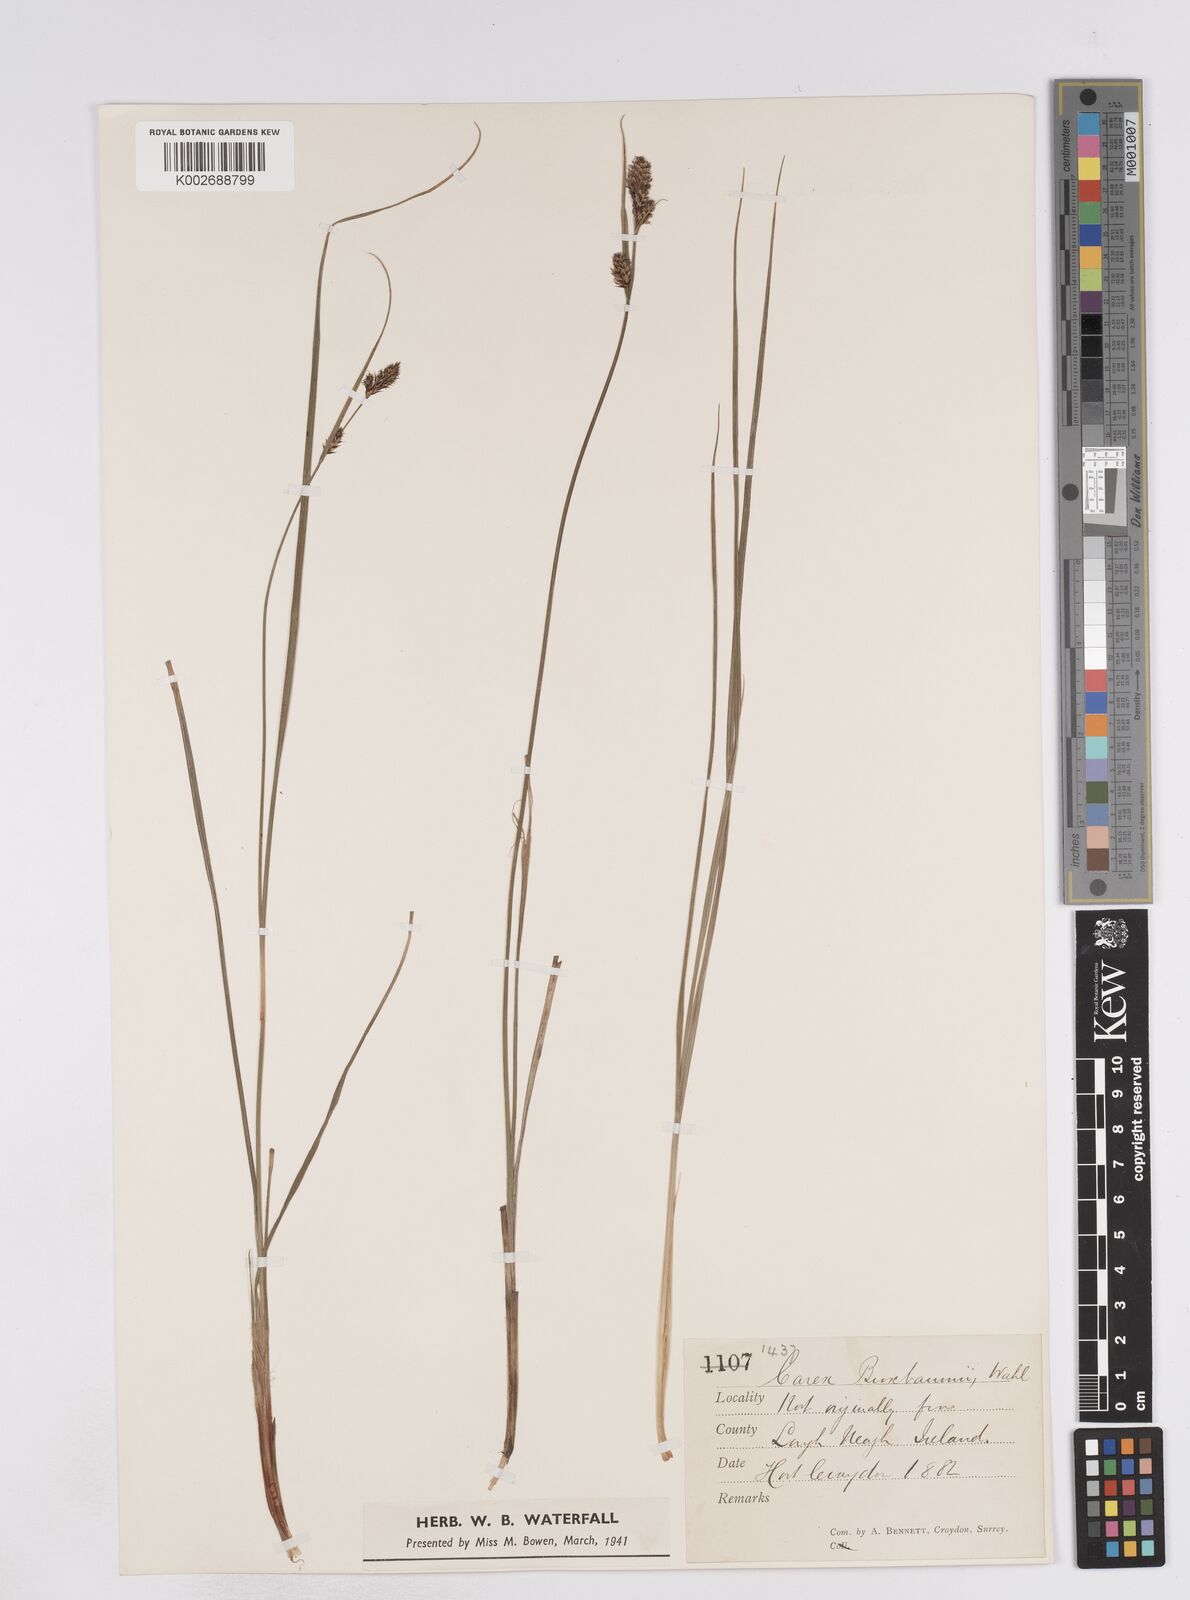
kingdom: Plantae
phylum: Tracheophyta
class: Liliopsida
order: Poales
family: Cyperaceae
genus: Carex
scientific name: Carex buxbaumii
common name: Club sedge
